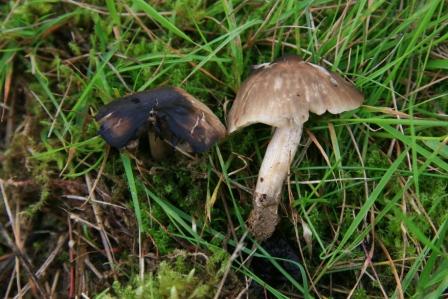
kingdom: Fungi
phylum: Basidiomycota
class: Agaricomycetes
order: Agaricales
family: Tricholomataceae
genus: Dermoloma
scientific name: Dermoloma cuneifolium
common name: eng-nonnehat
